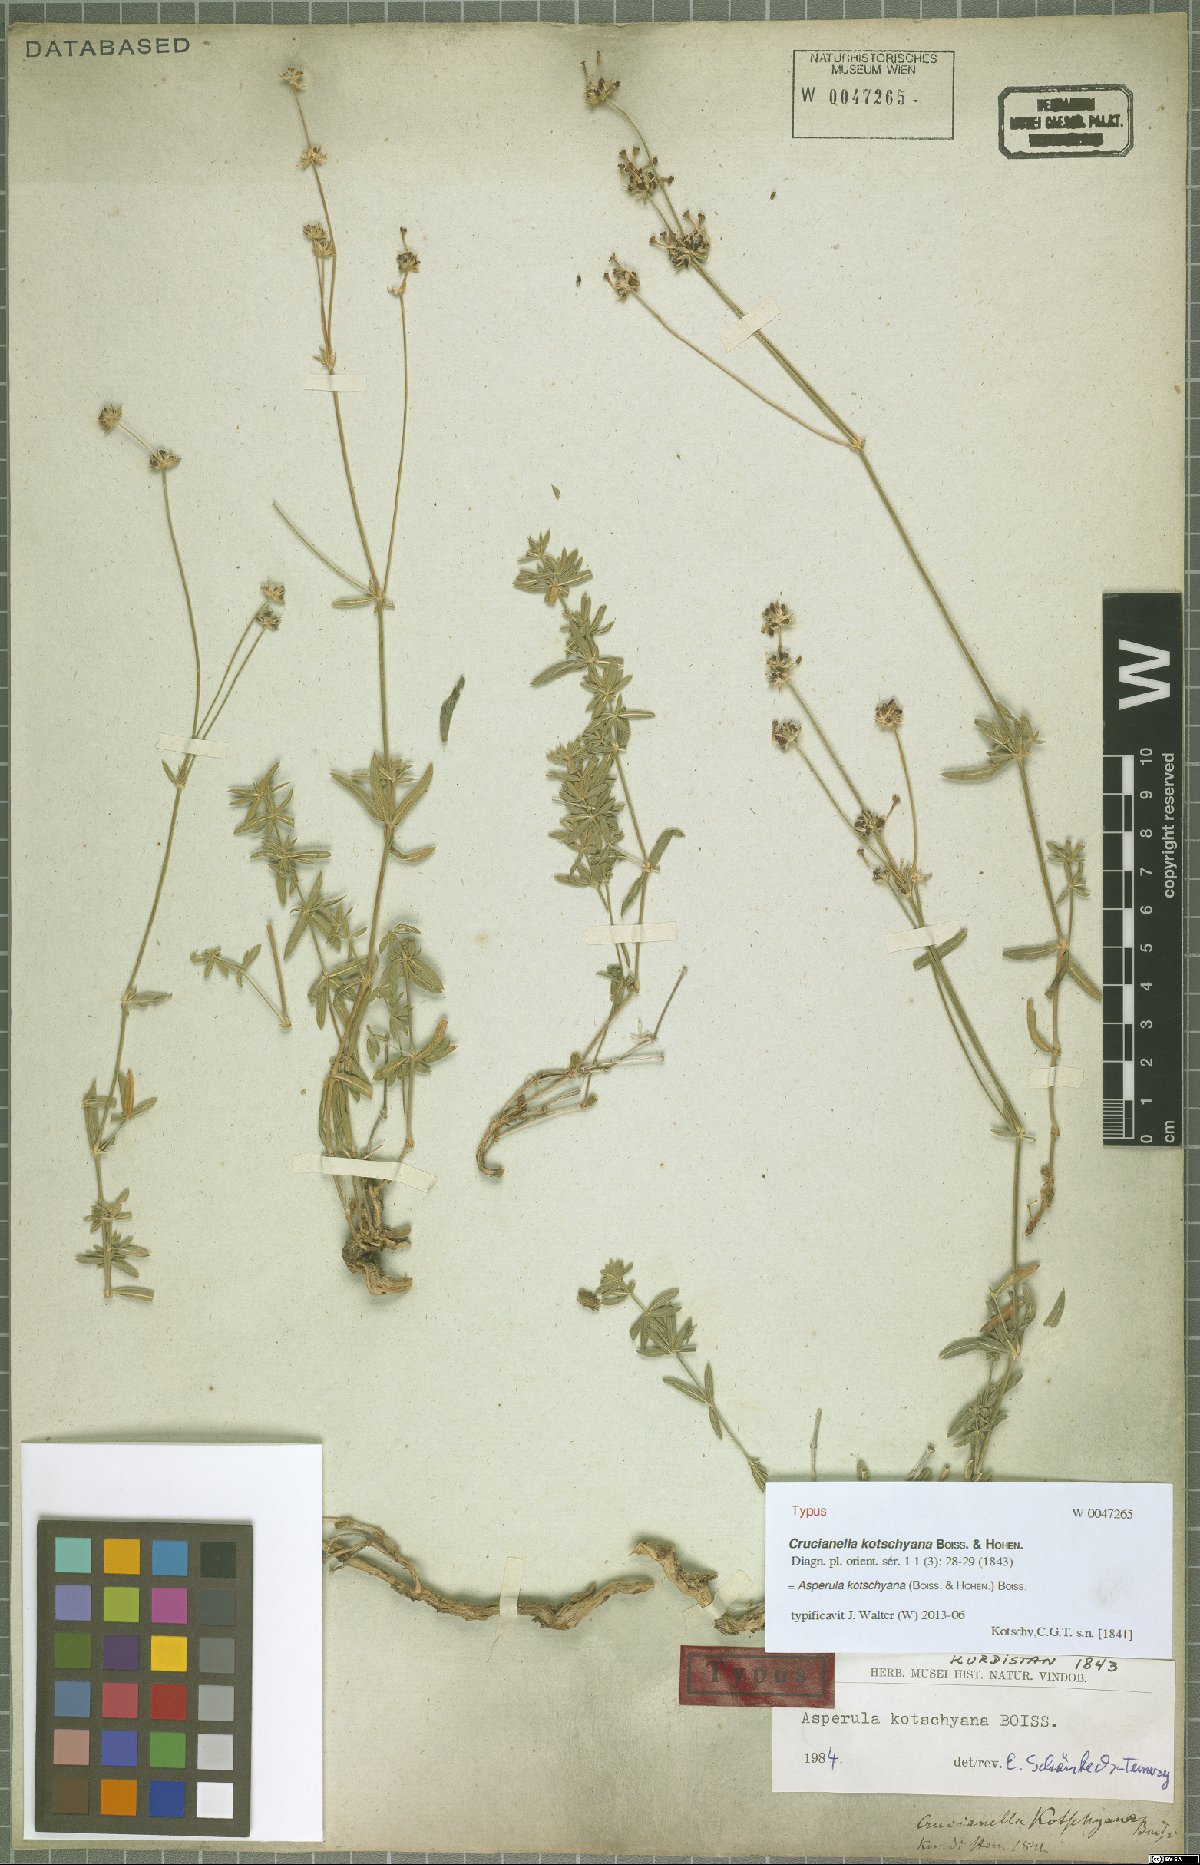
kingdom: Plantae
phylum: Tracheophyta
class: Magnoliopsida
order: Gentianales
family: Rubiaceae
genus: Asperula
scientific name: Asperula kotschyana
